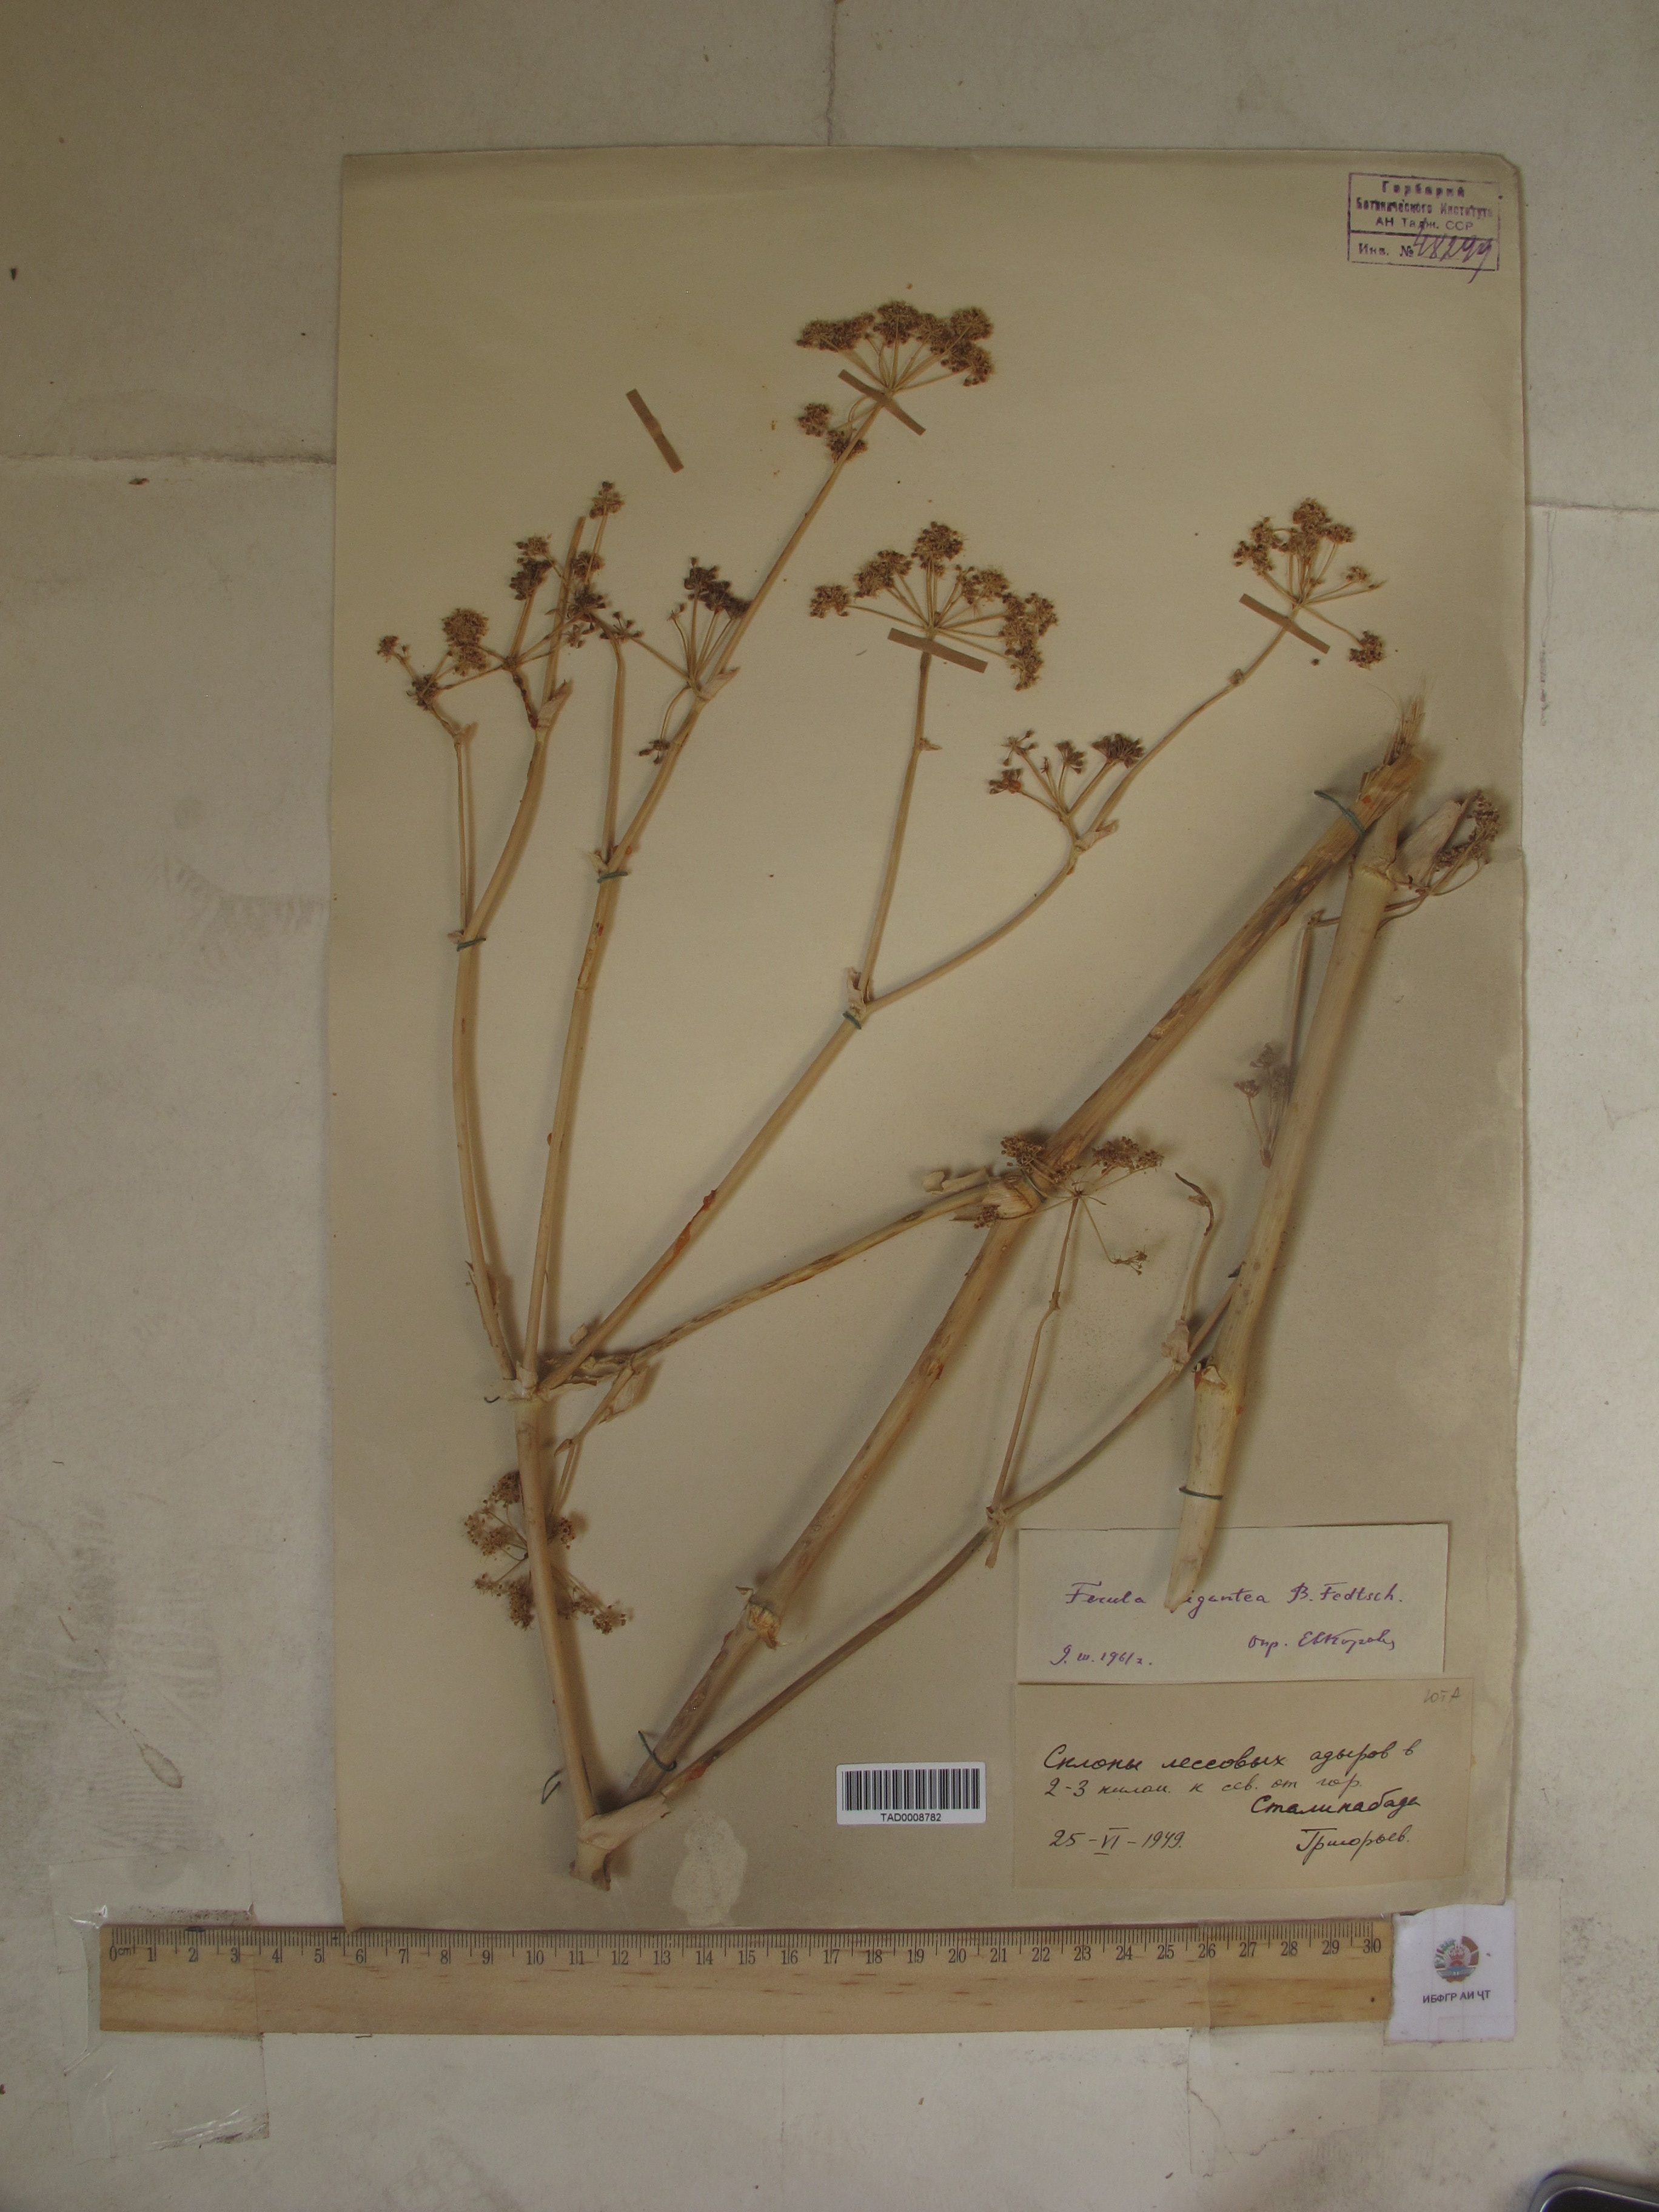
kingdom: Plantae
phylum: Tracheophyta
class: Magnoliopsida
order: Apiales
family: Apiaceae
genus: Ferula
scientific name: Ferula gigantea
